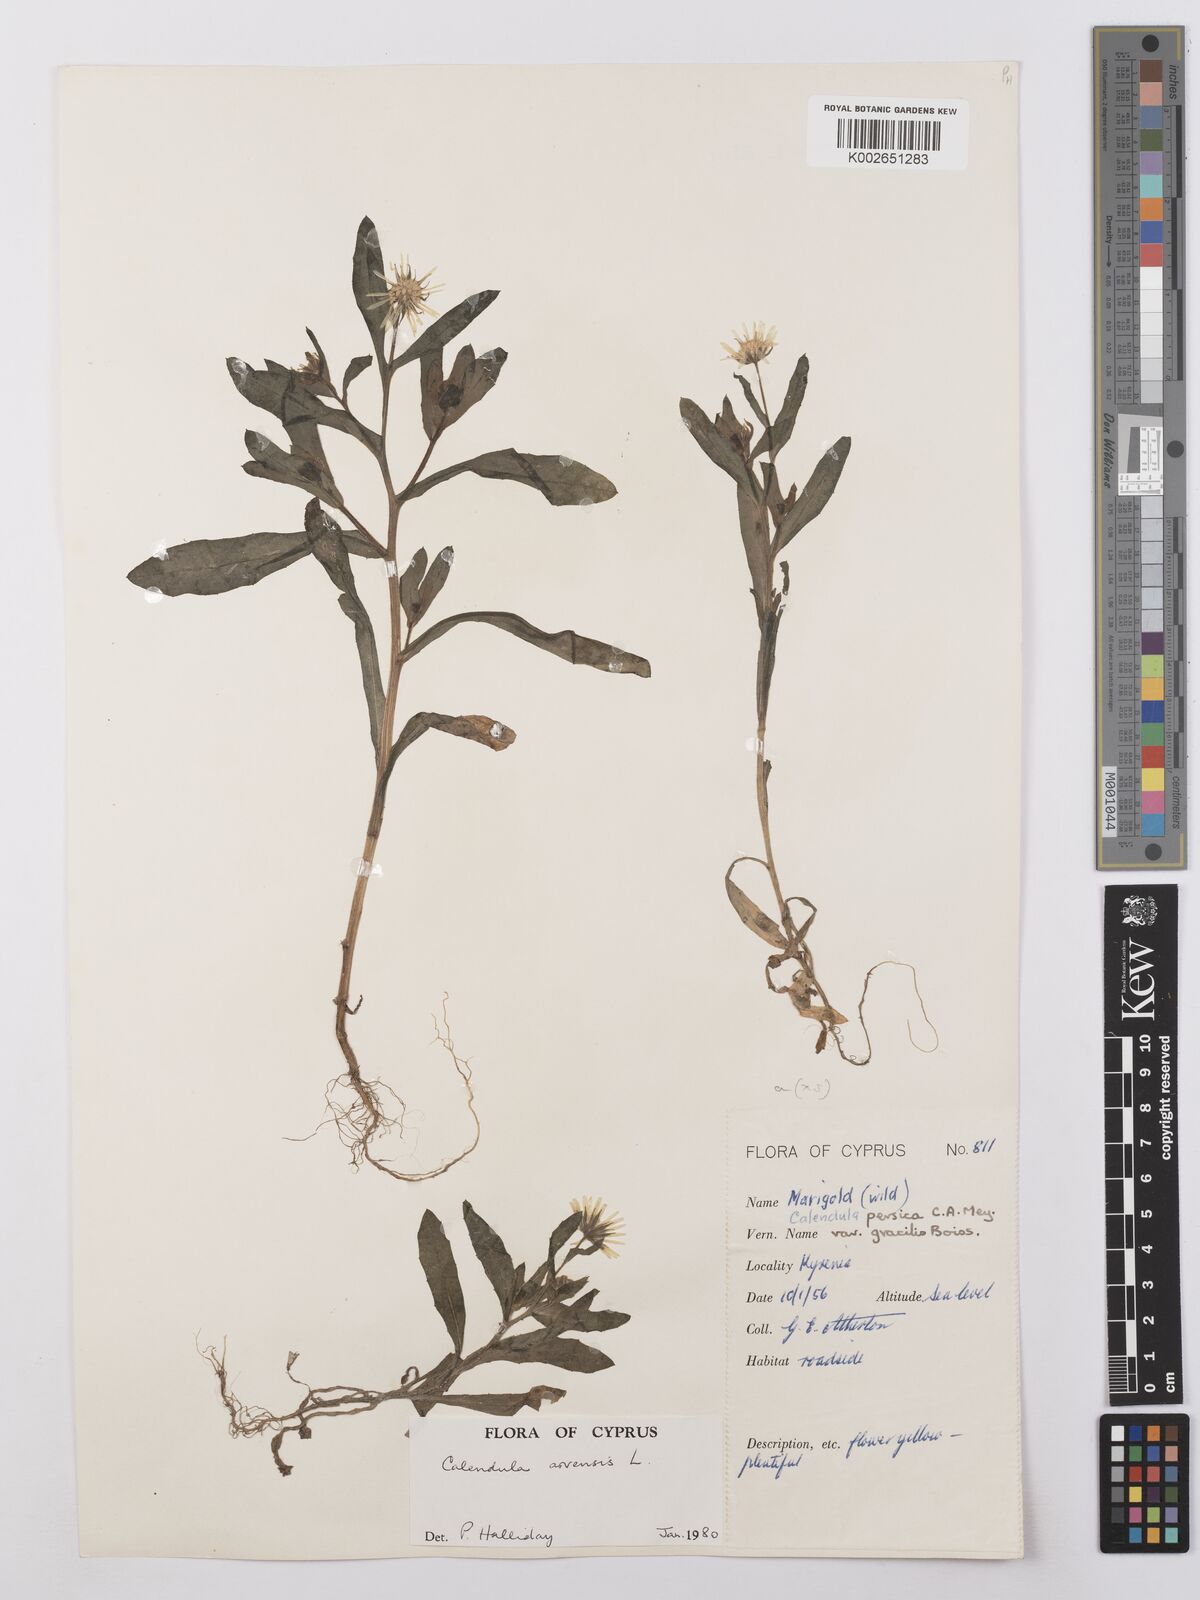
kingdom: Plantae
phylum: Tracheophyta
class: Magnoliopsida
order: Asterales
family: Asteraceae
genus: Calendula
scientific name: Calendula arvensis
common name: Field marigold
